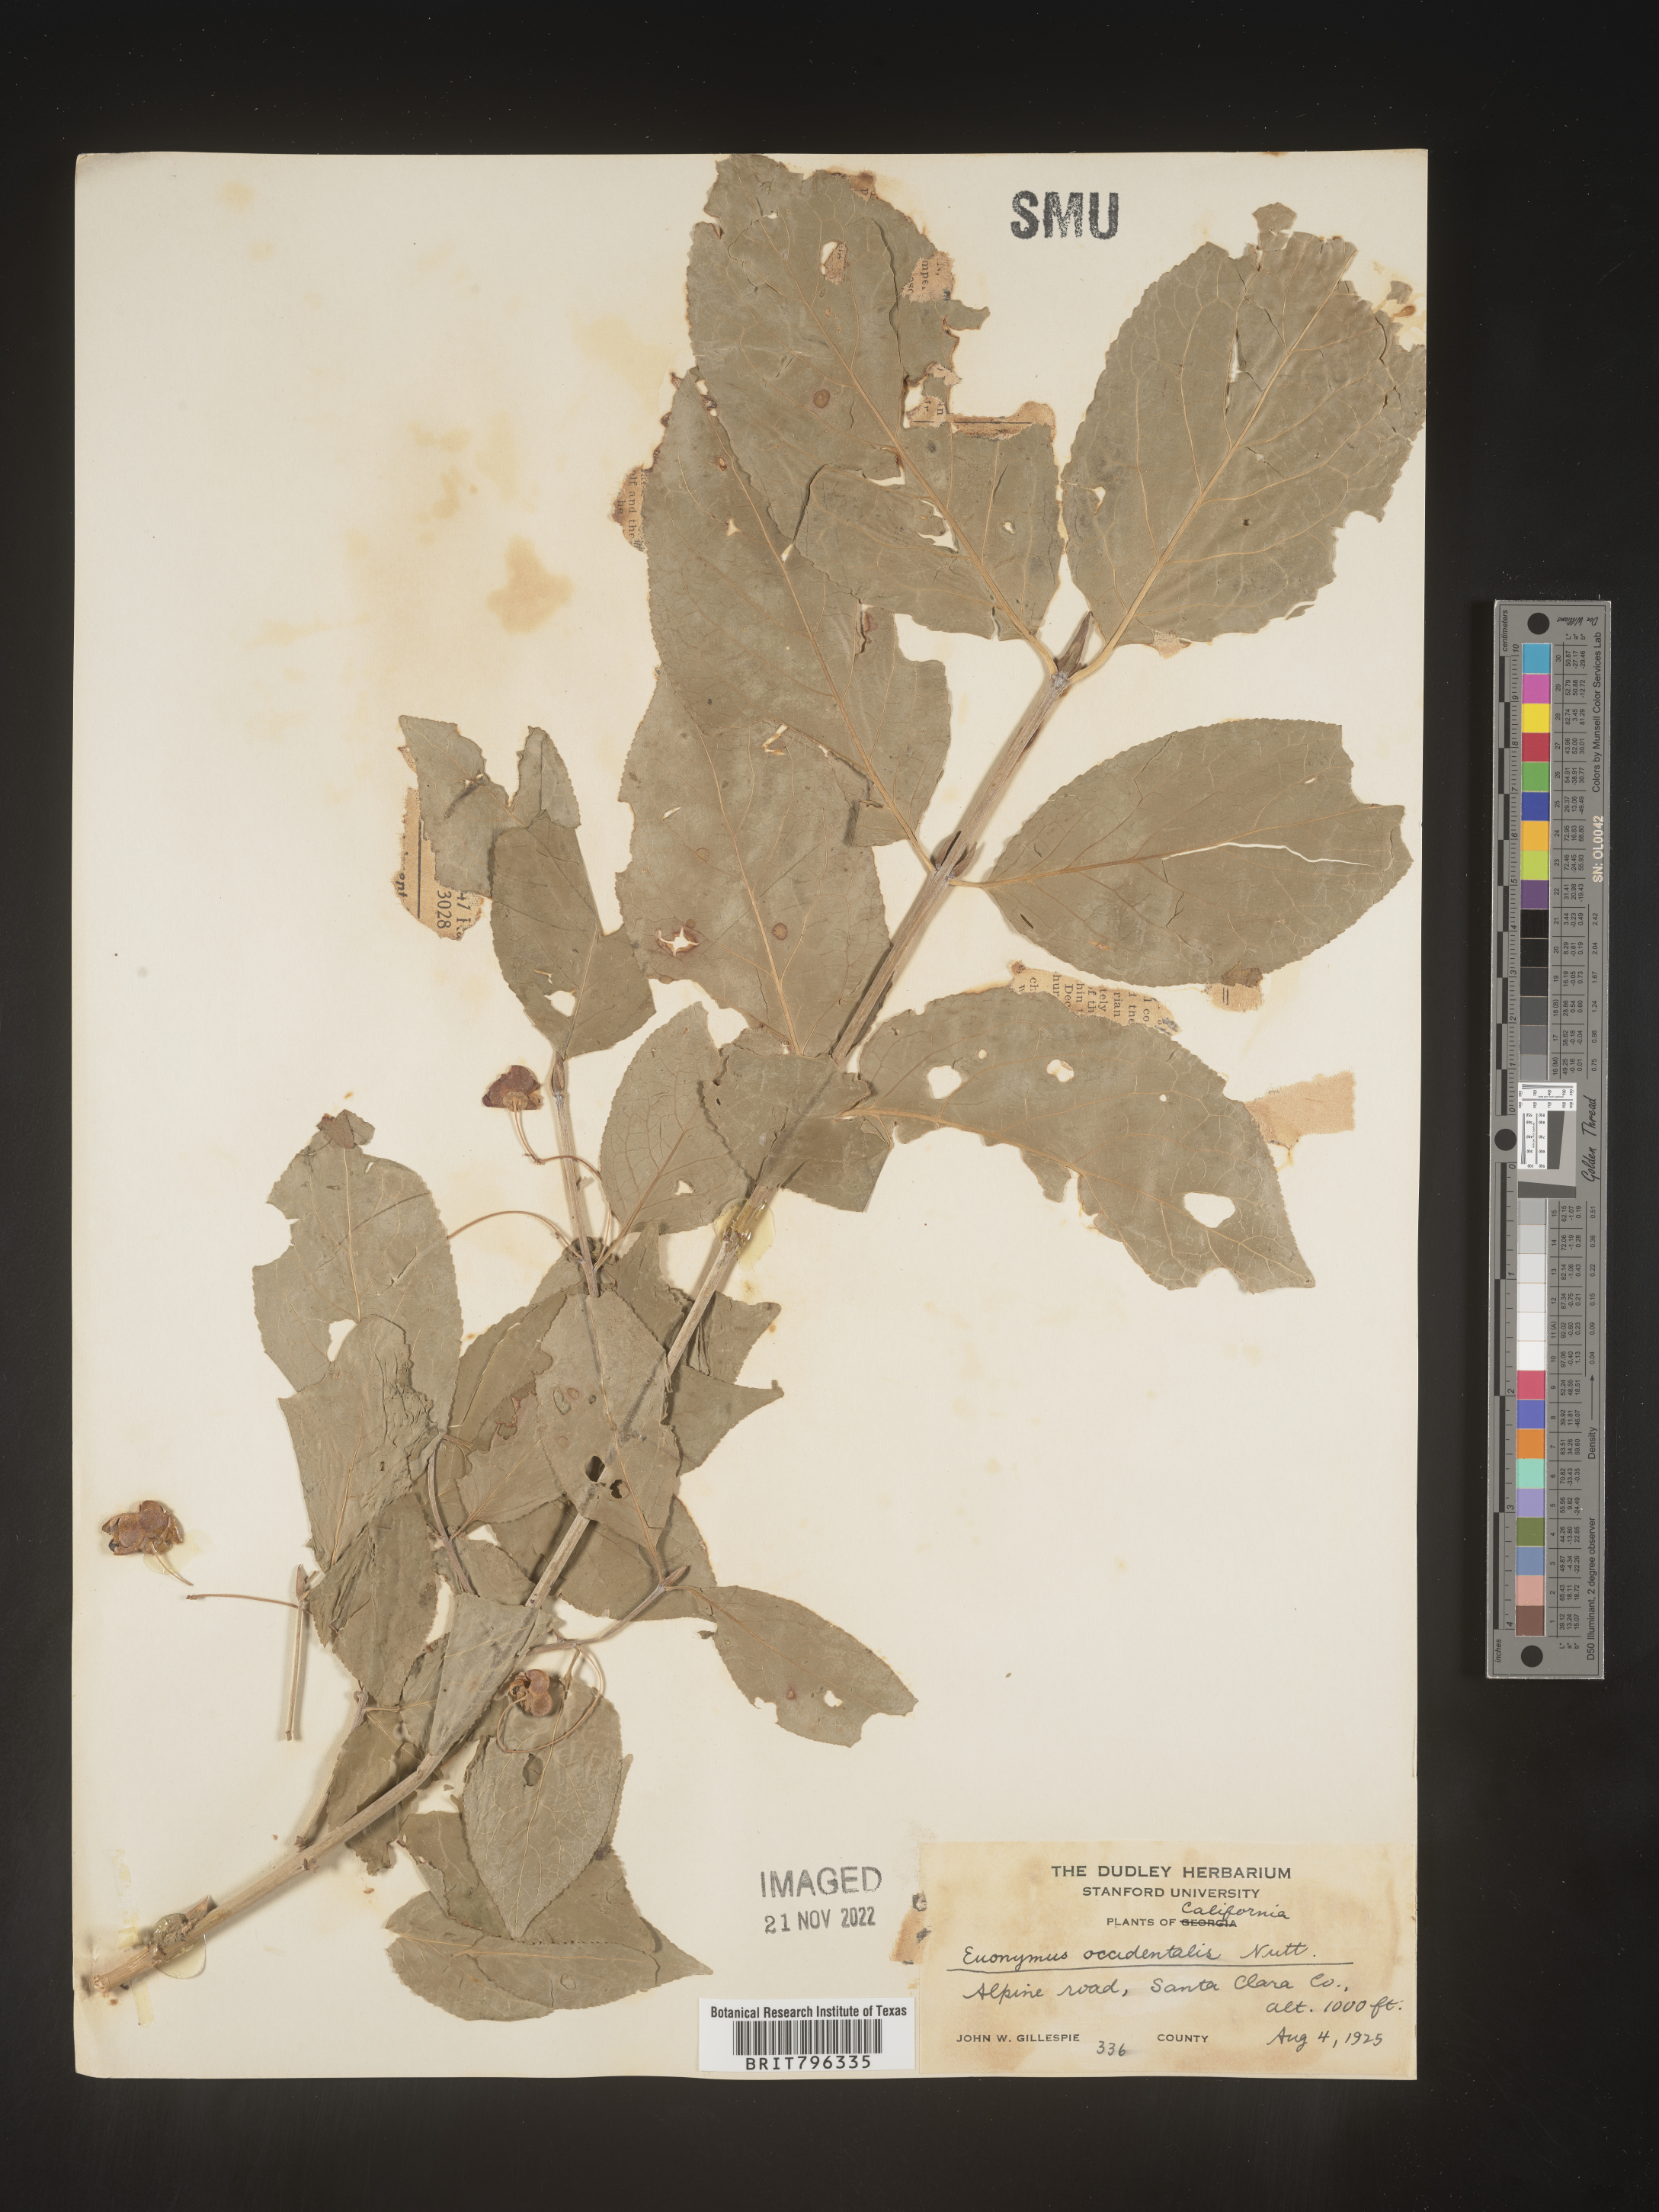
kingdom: Plantae
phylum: Tracheophyta
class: Magnoliopsida
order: Celastrales
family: Celastraceae
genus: Euonymus
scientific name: Euonymus occidentalis
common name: Western burningbush
